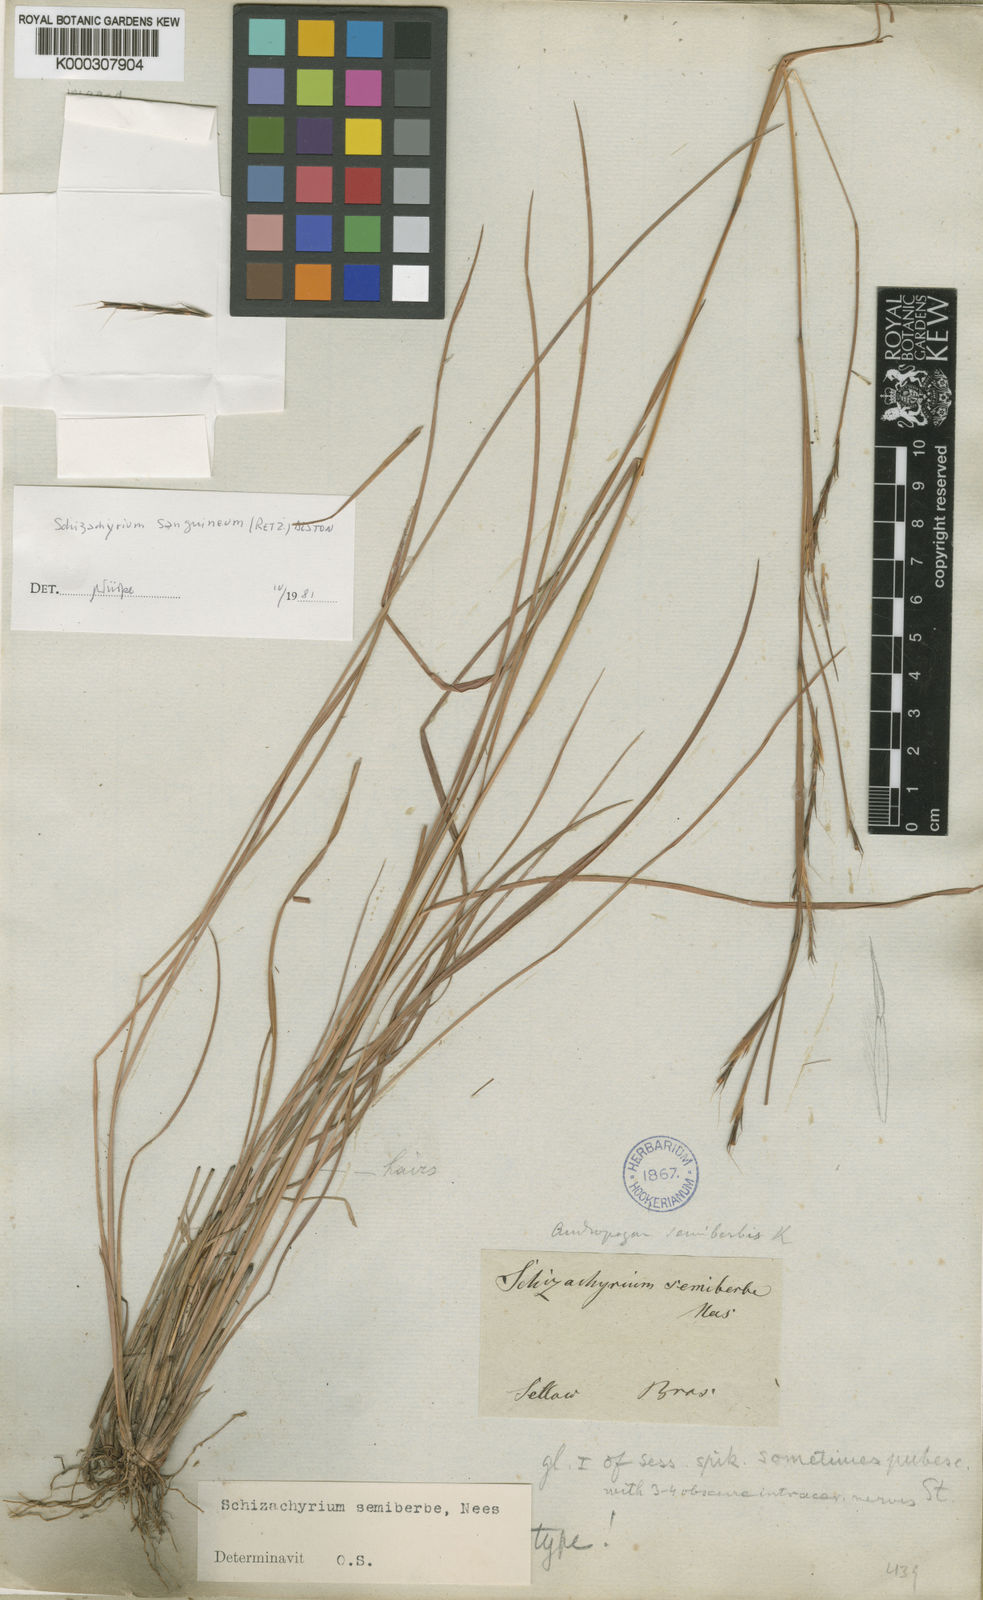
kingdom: Plantae
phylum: Tracheophyta
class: Liliopsida
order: Poales
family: Poaceae
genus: Schizachyrium
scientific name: Schizachyrium sanguineum
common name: Crimson bluestem
